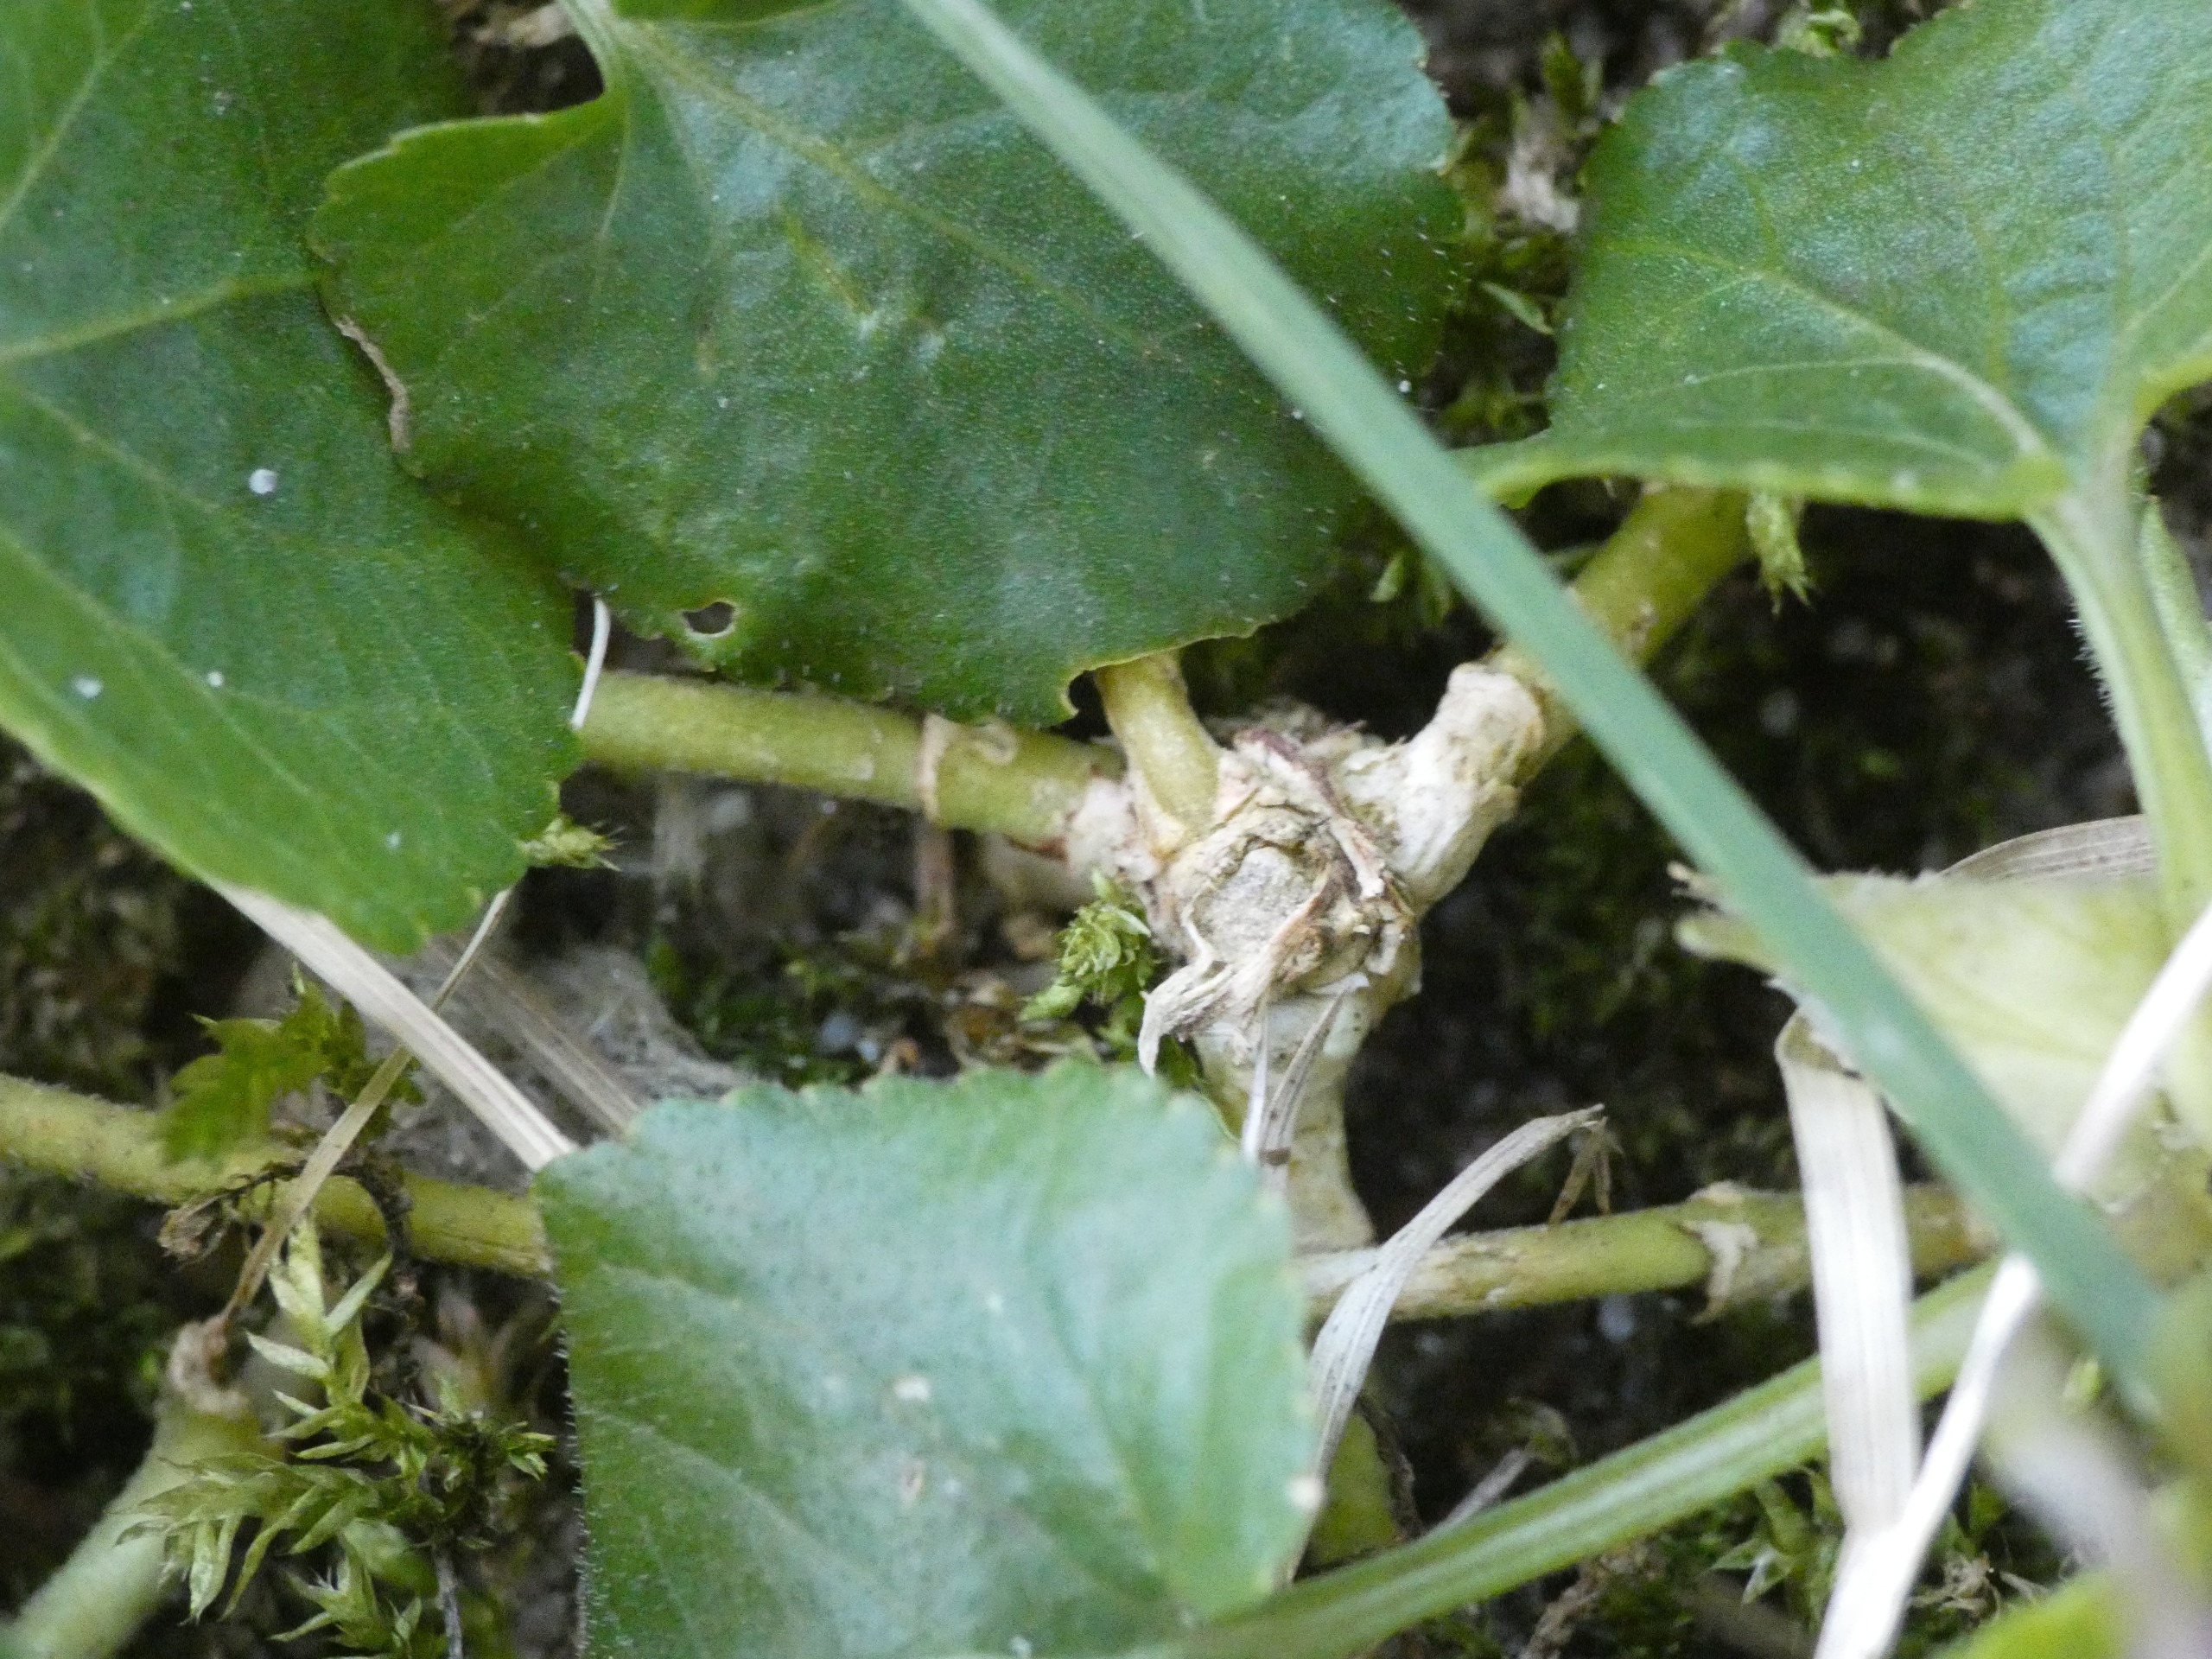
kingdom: Plantae
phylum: Tracheophyta
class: Magnoliopsida
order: Malpighiales
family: Violaceae
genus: Viola
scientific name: Viola odorata
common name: Marts-viol
